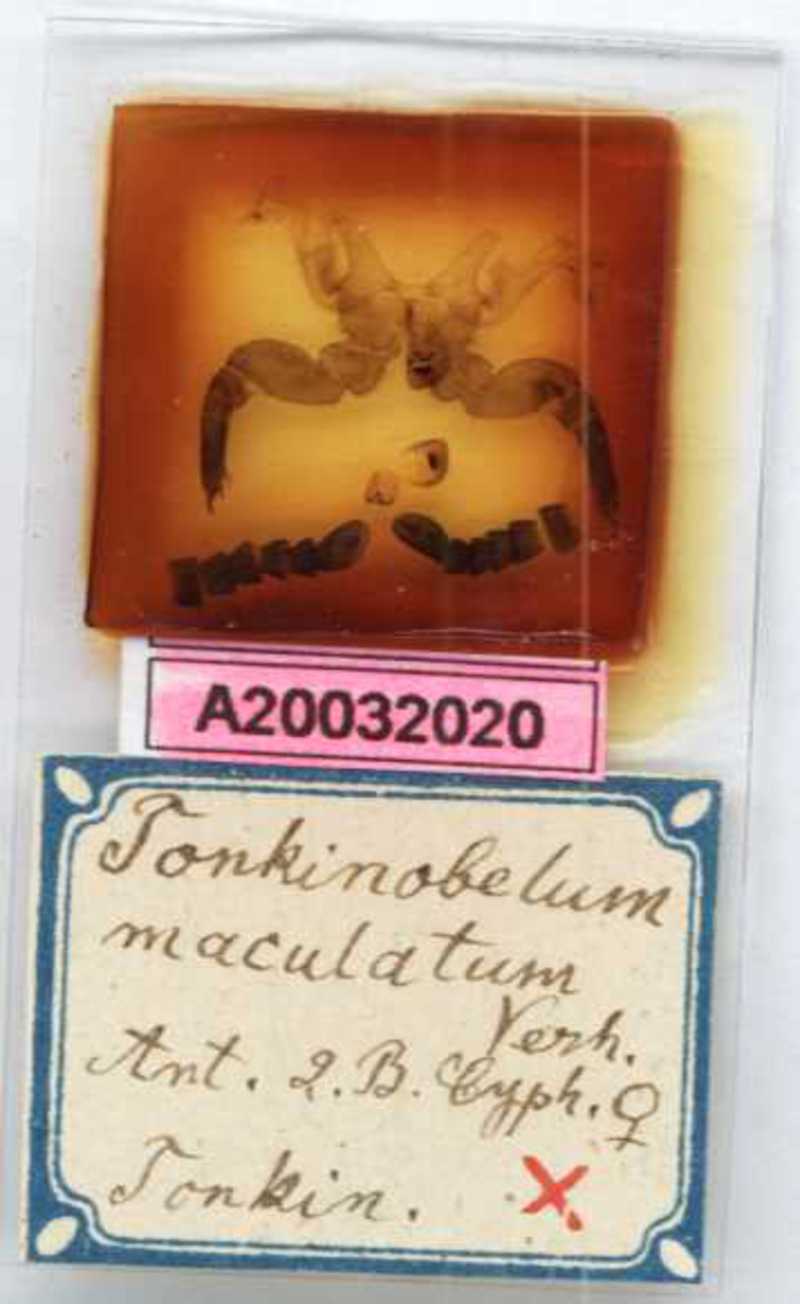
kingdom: Animalia
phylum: Arthropoda
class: Diplopoda
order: Sphaerotheriida
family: Zephroniidae
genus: Sphaeropoeus
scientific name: Sphaeropoeus maculatus
